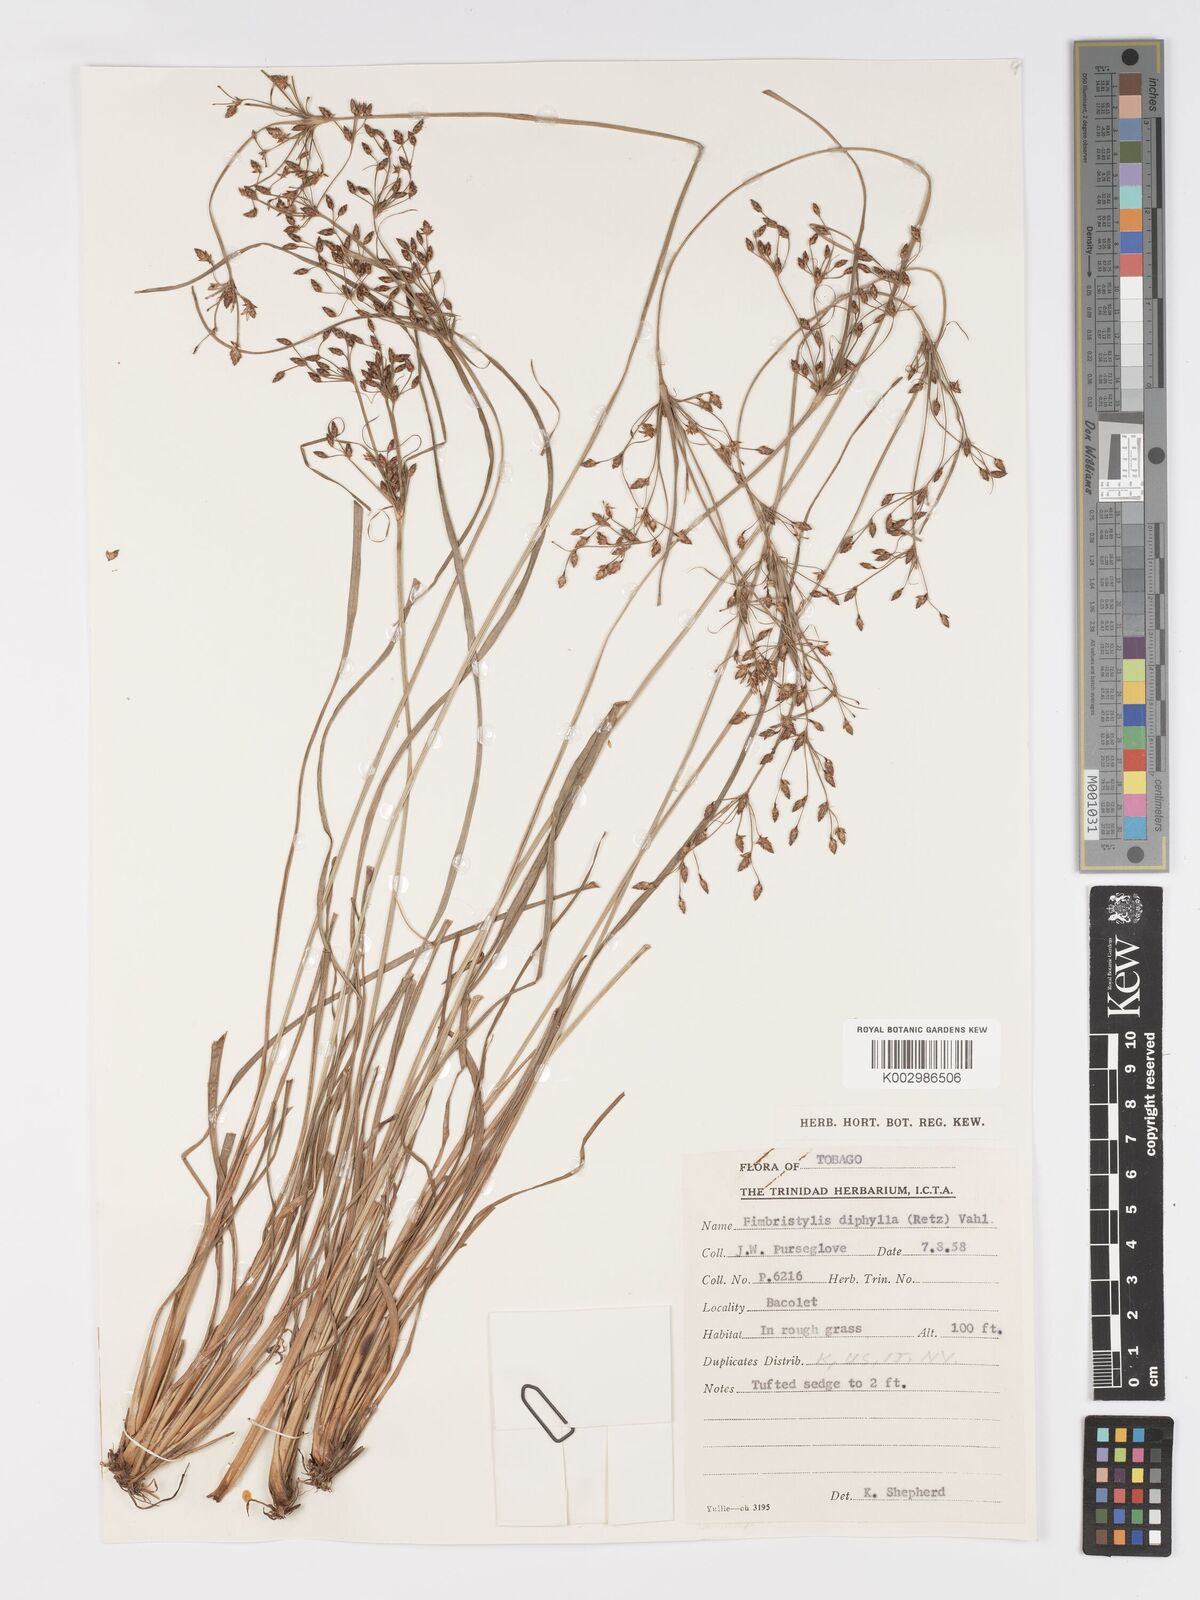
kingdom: Plantae
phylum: Tracheophyta
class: Liliopsida
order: Poales
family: Cyperaceae
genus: Fimbristylis
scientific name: Fimbristylis dichotoma
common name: Forked fimbry
